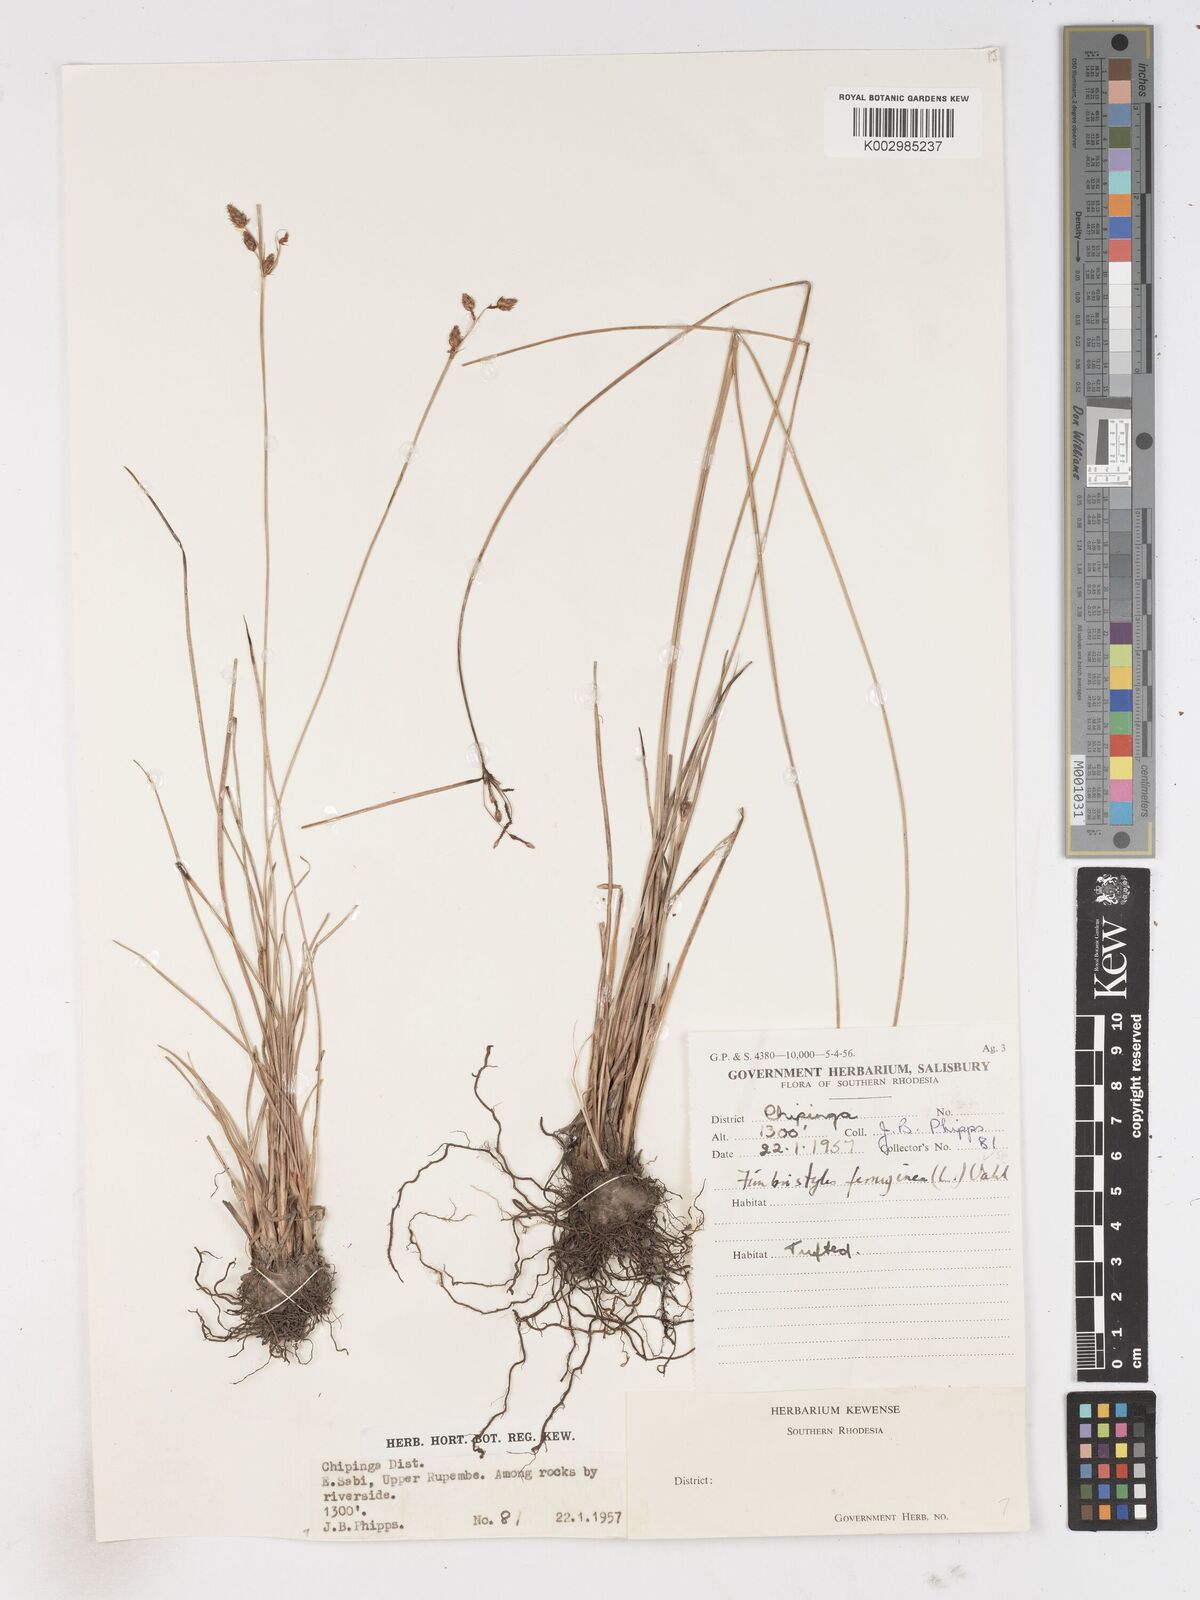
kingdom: Plantae
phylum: Tracheophyta
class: Liliopsida
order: Poales
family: Cyperaceae
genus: Fimbristylis
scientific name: Fimbristylis
